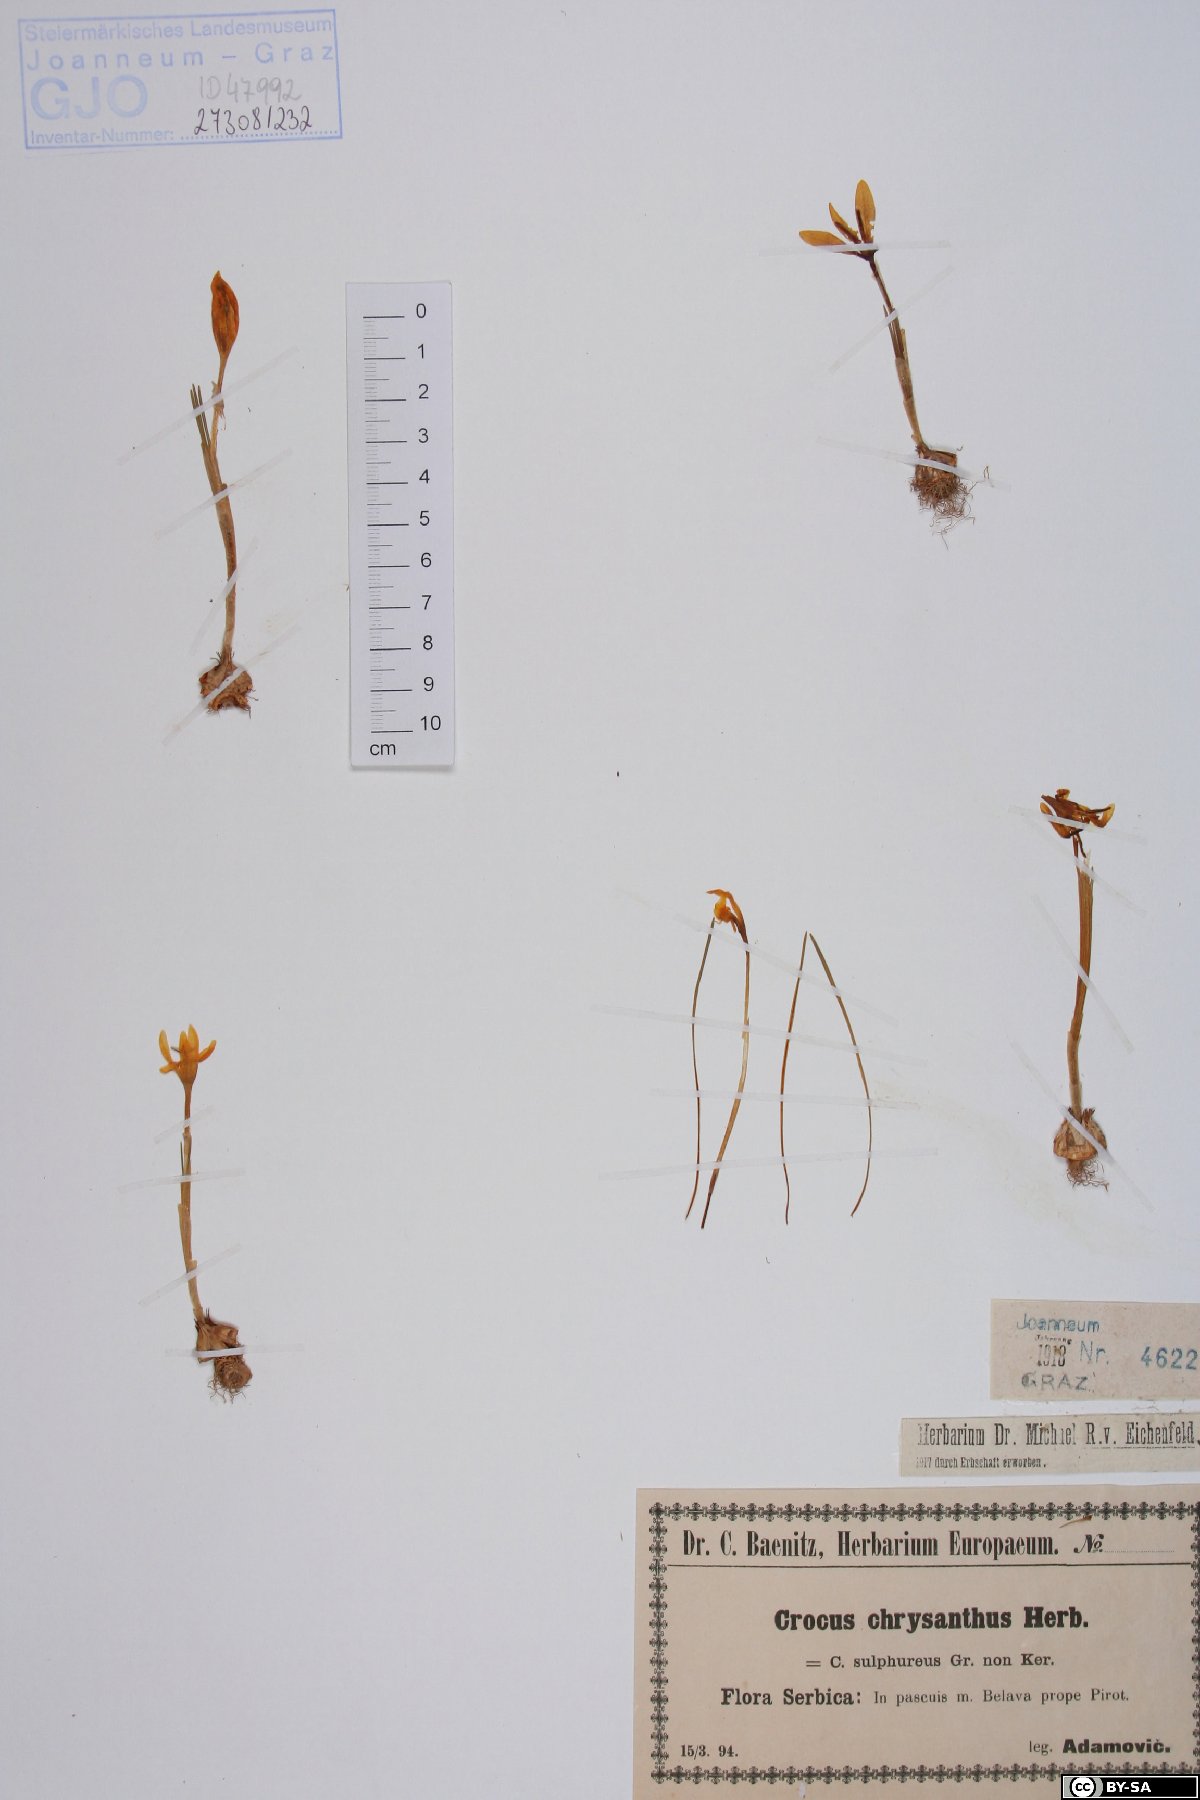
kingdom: Plantae
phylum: Tracheophyta
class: Liliopsida
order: Asparagales
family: Iridaceae
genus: Crocus
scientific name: Crocus chrysanthus
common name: Golden crocus
